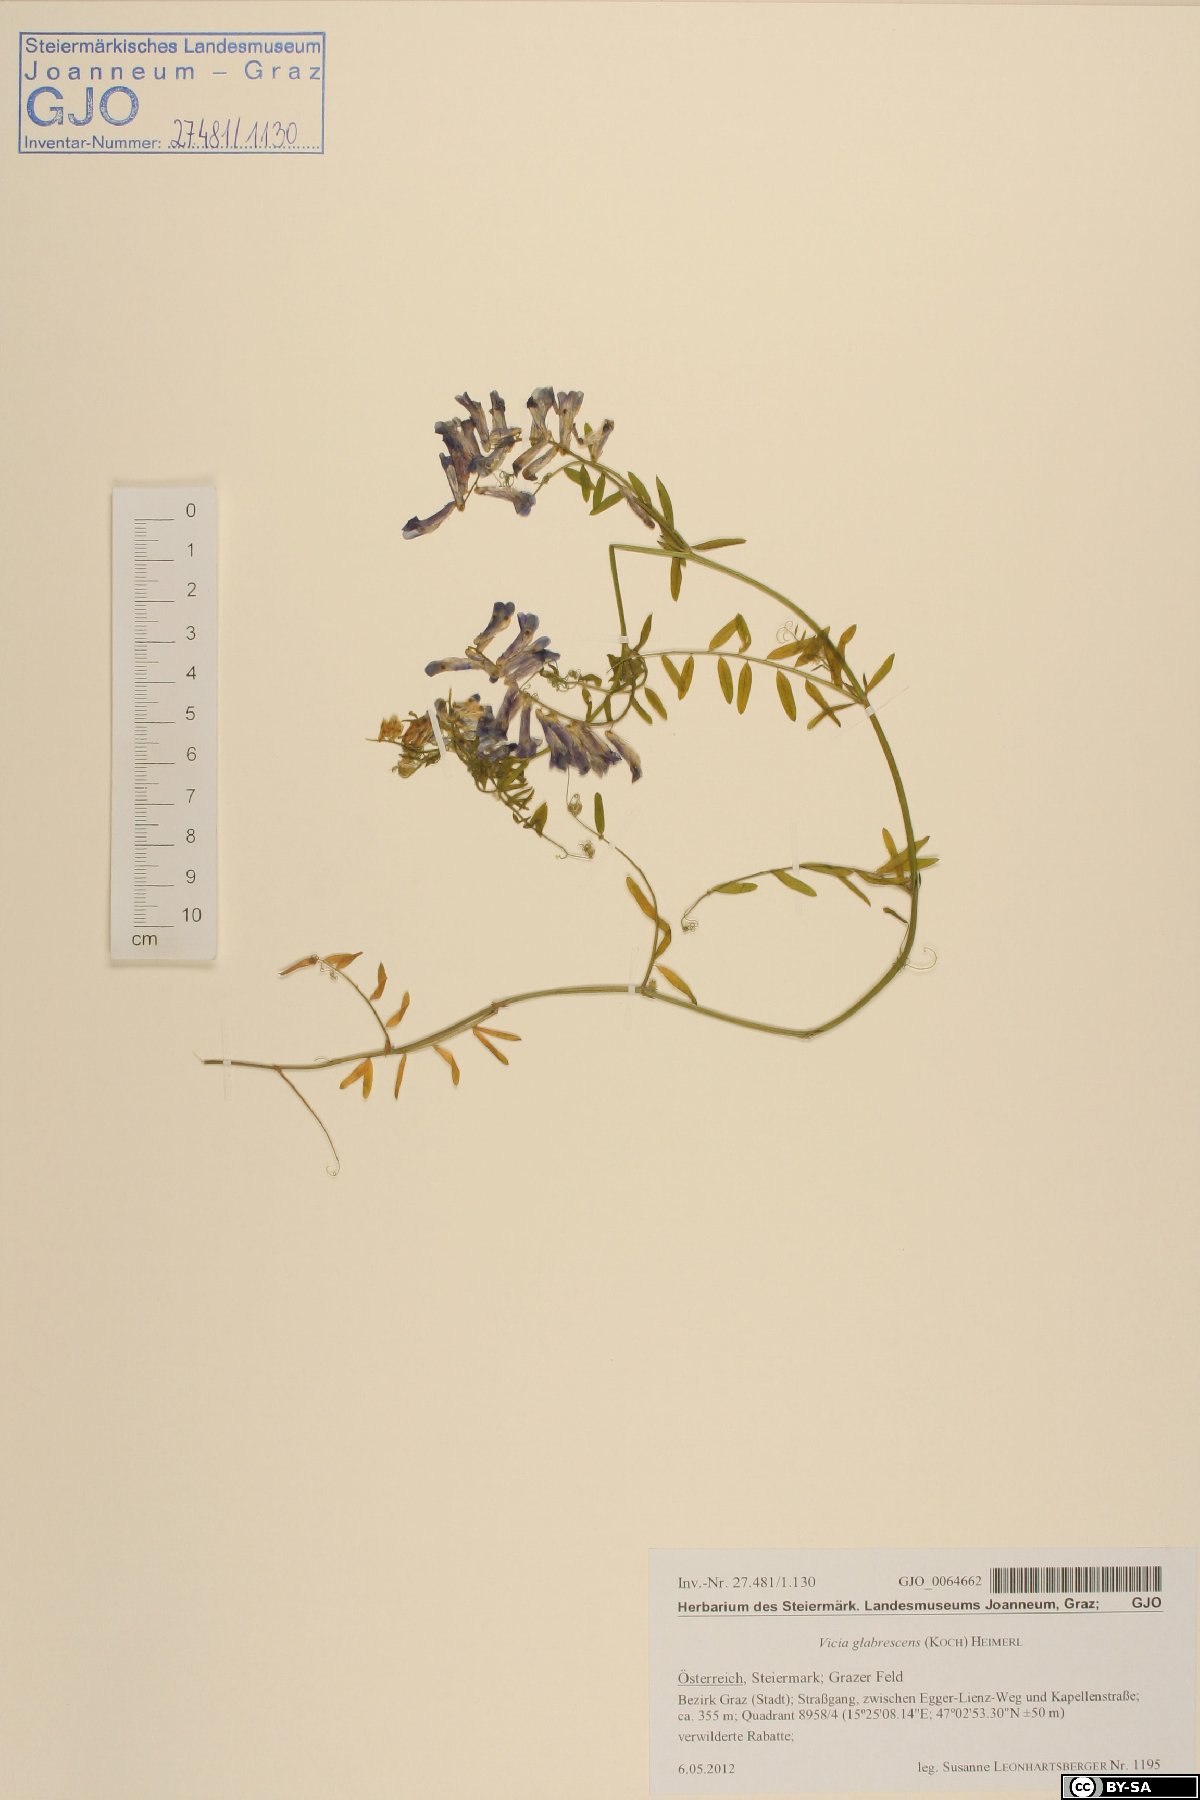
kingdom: Plantae
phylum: Tracheophyta
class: Magnoliopsida
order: Fabales
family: Fabaceae
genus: Vicia
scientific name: Vicia villosa
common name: Fodder vetch
